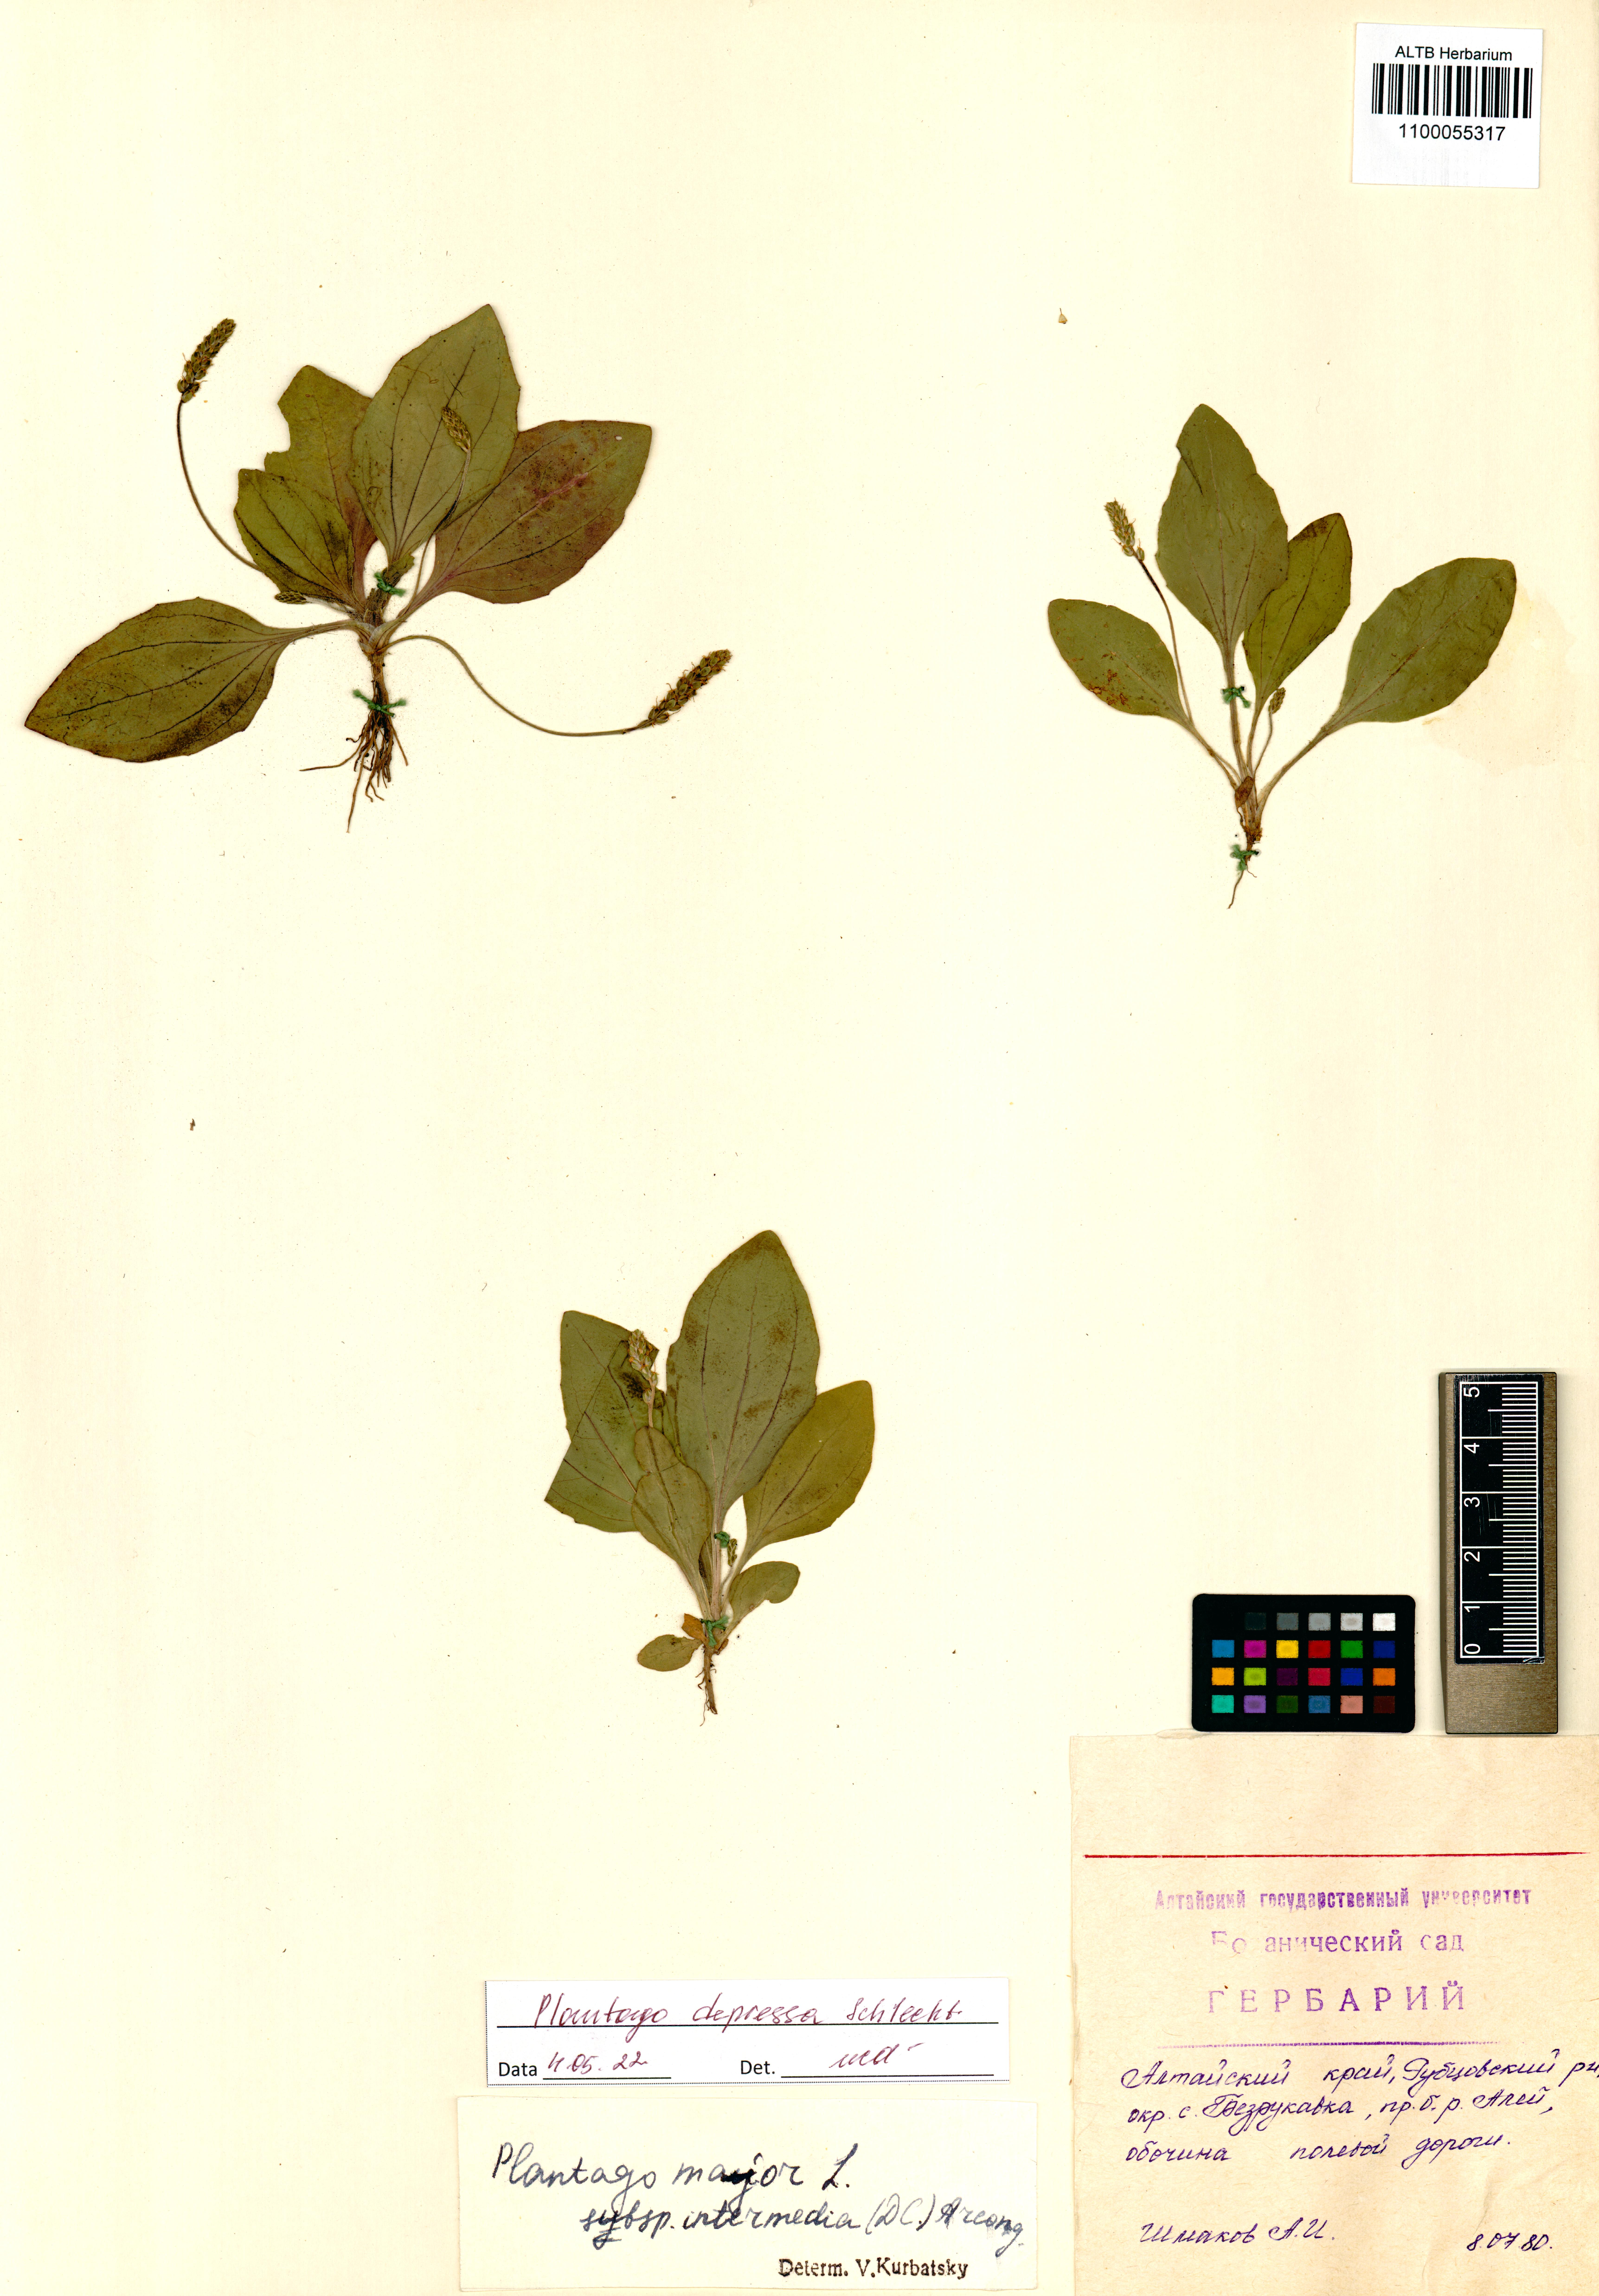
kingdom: Plantae
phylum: Tracheophyta
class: Magnoliopsida
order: Lamiales
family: Plantaginaceae
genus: Plantago
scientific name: Plantago depressa
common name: Depressed plantain
